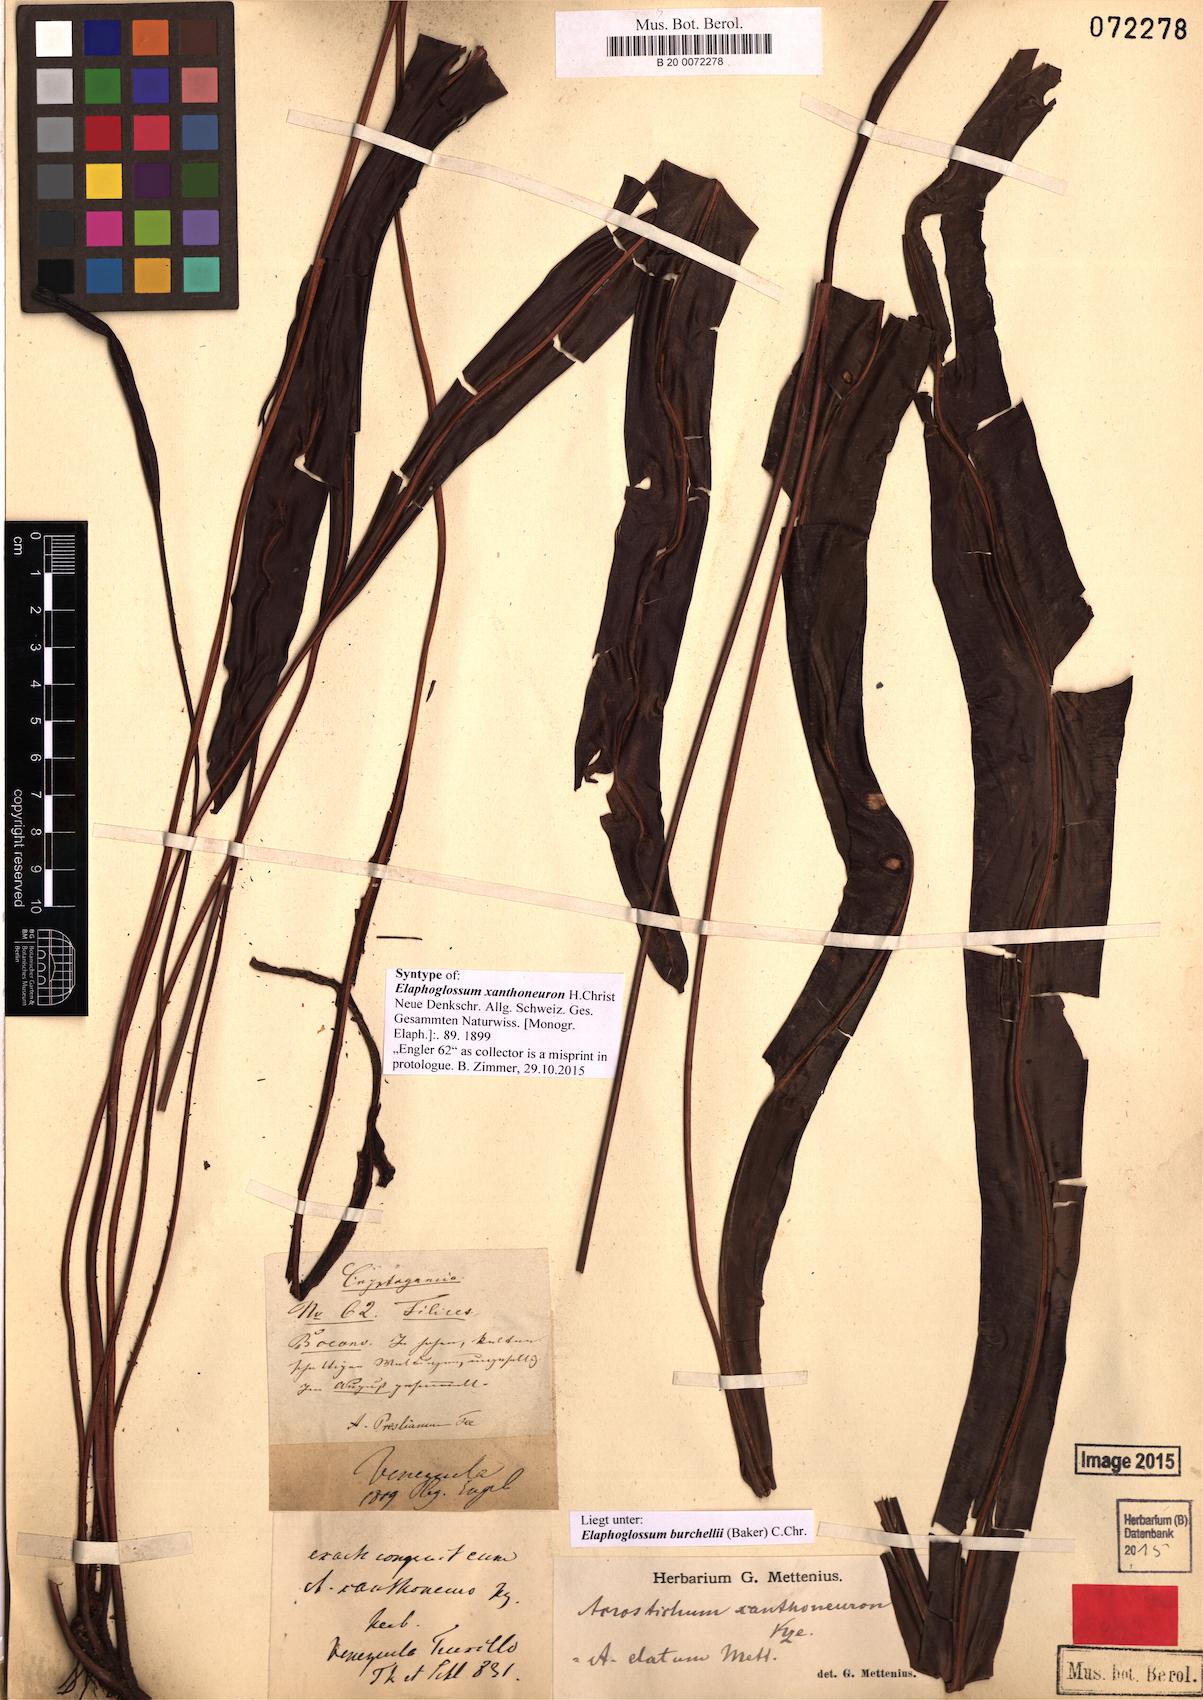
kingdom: Plantae
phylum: Tracheophyta
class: Polypodiopsida
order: Polypodiales
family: Dryopteridaceae
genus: Elaphoglossum
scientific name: Elaphoglossum burchellii
